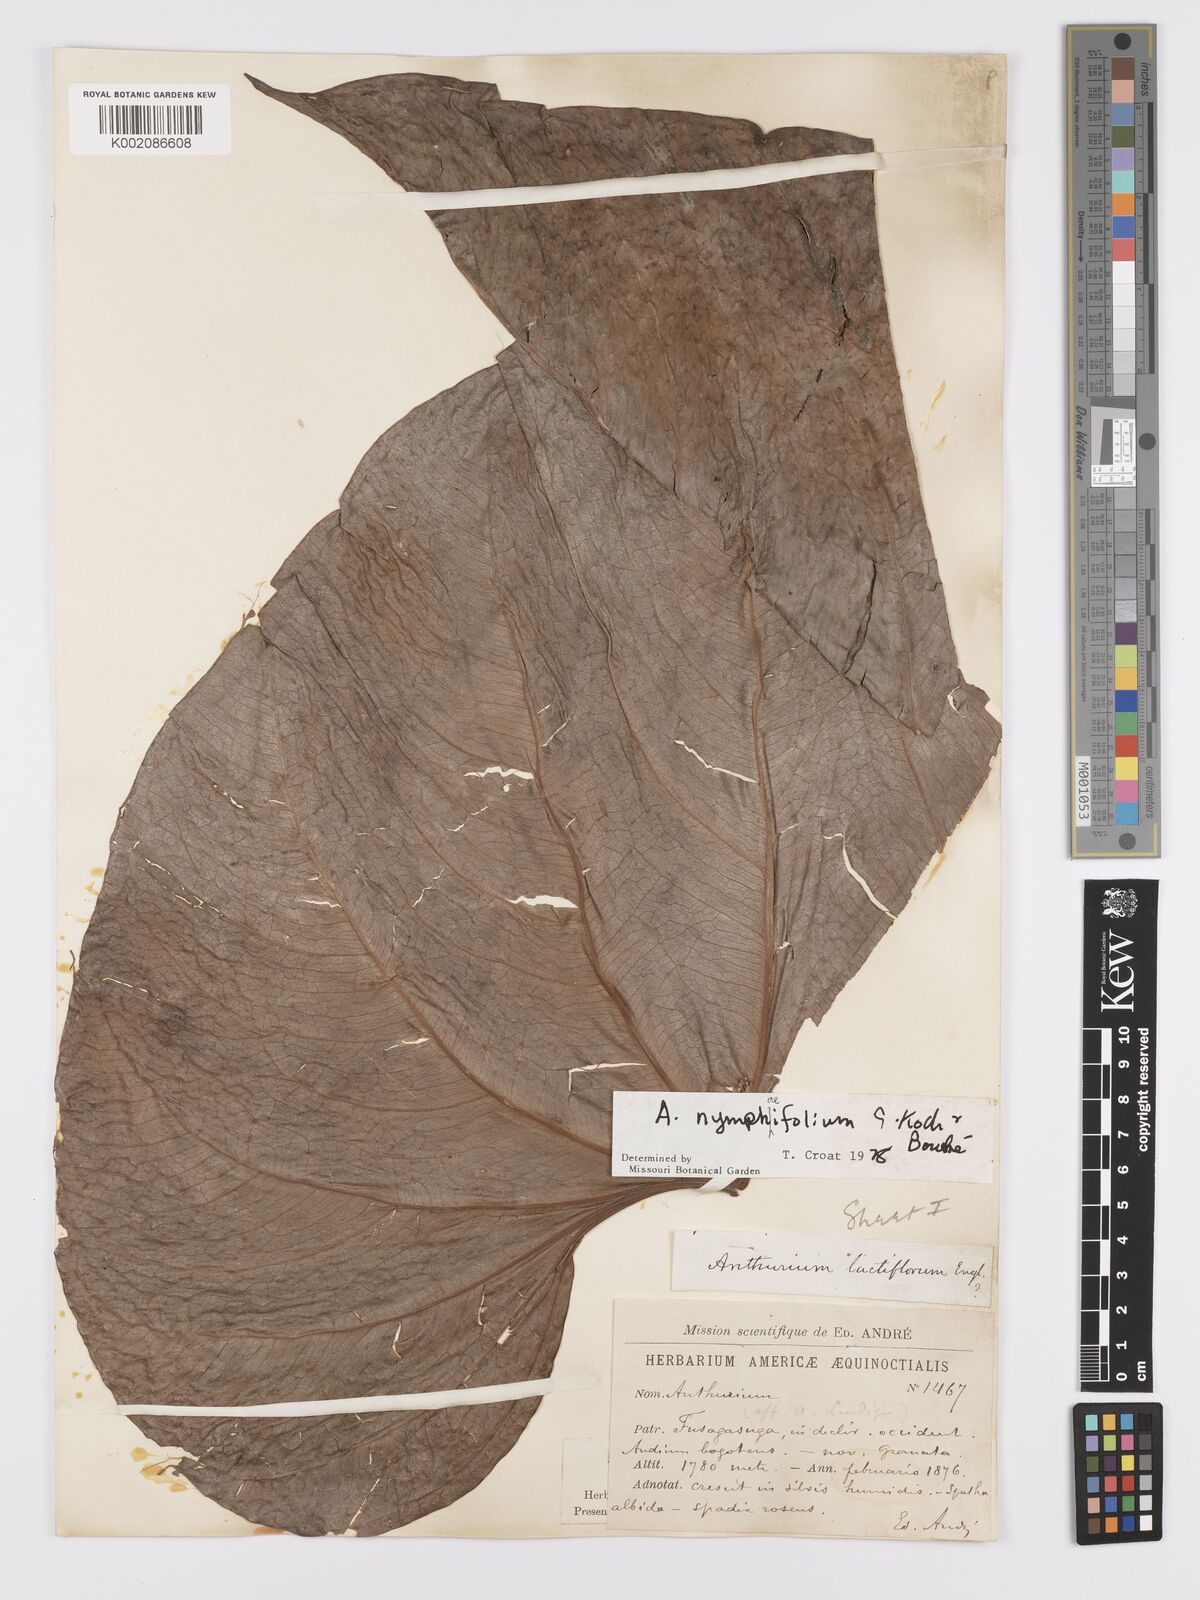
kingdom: Plantae
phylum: Tracheophyta
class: Liliopsida
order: Alismatales
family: Araceae
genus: Anthurium
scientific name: Anthurium nymphaeifolium
